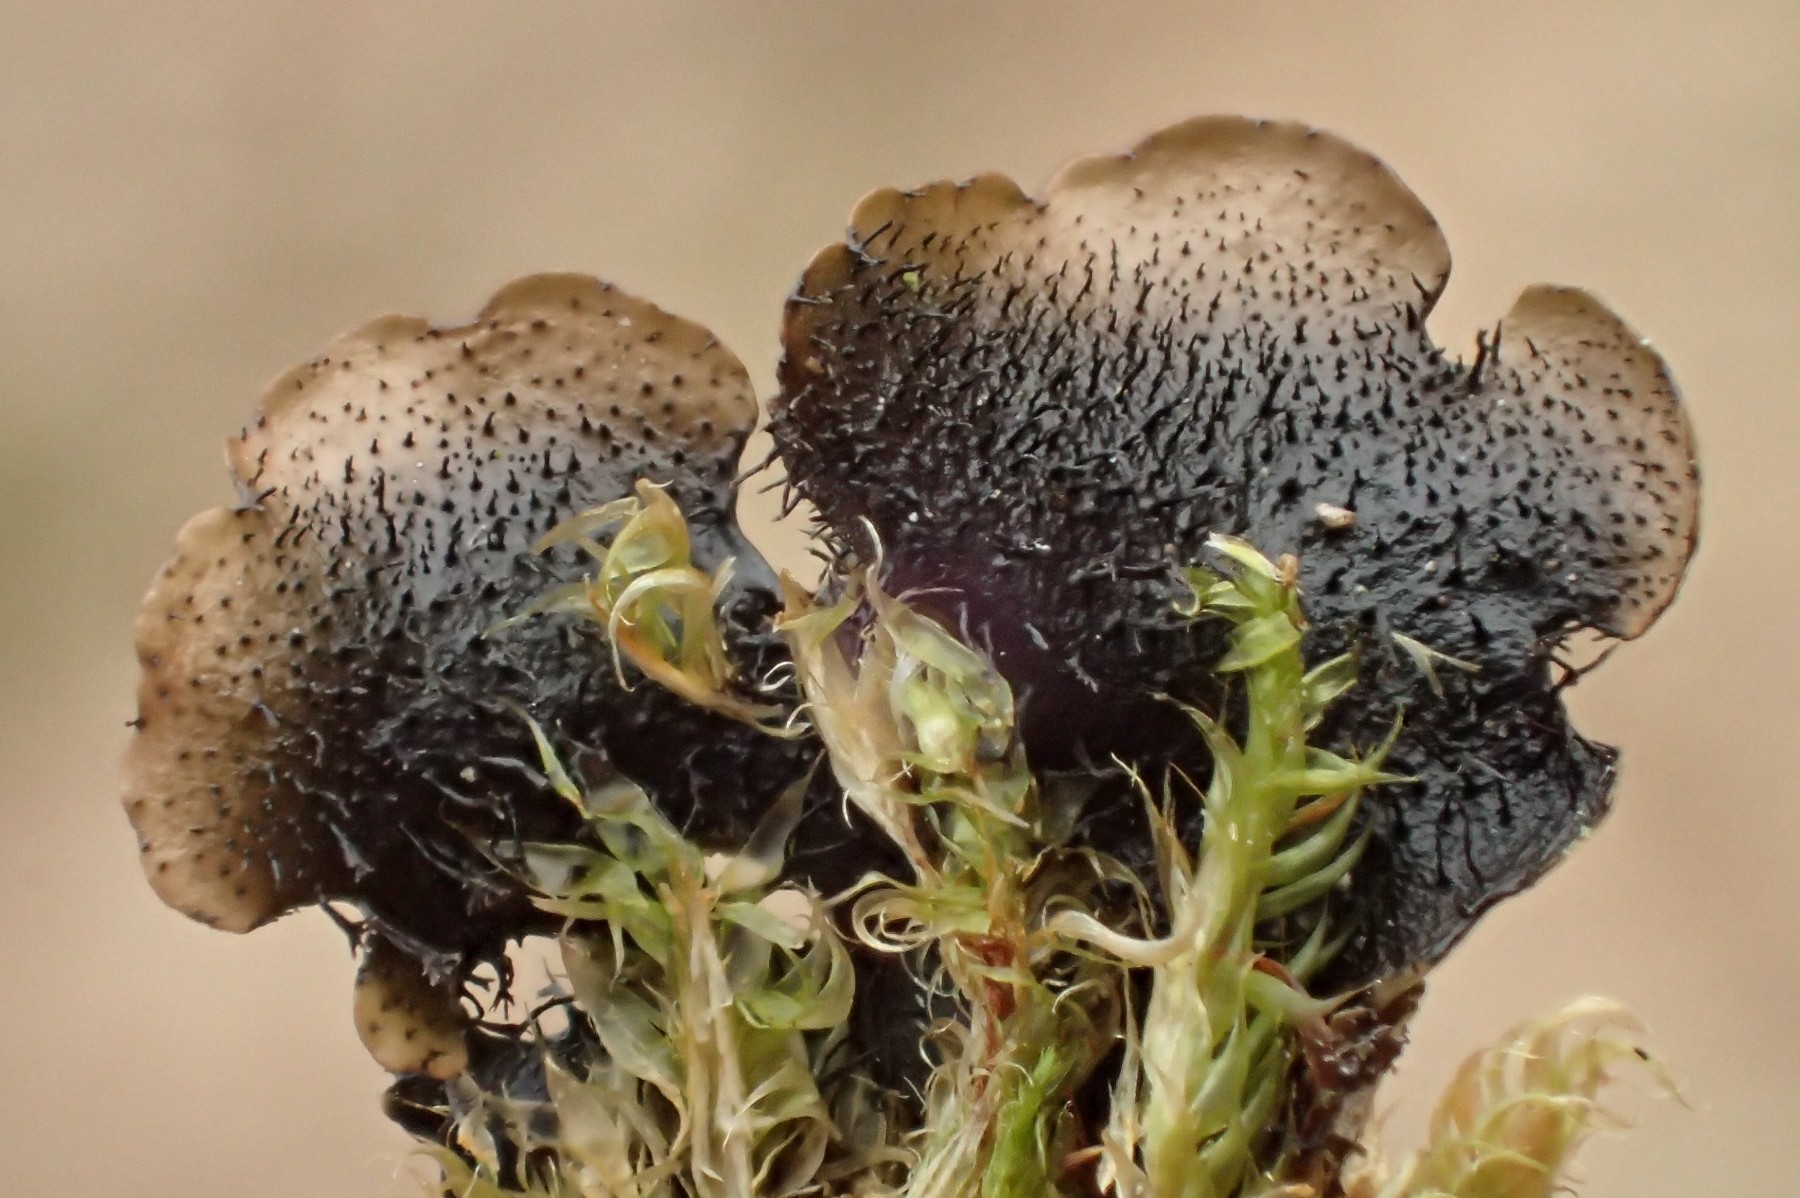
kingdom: Fungi
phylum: Ascomycota
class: Lecanoromycetes
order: Lecanorales
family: Parmeliaceae
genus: Hypotrachyna
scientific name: Hypotrachyna afrorevoluta
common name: kyst-skållav
